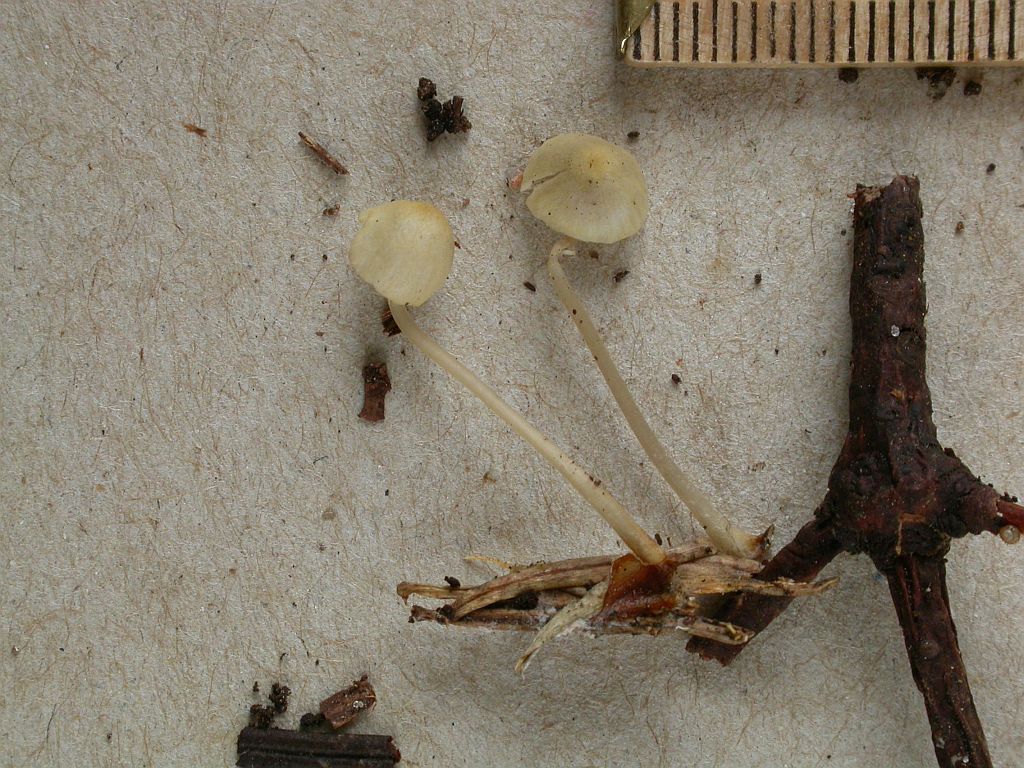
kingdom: Fungi
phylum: Basidiomycota
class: Agaricomycetes
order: Agaricales
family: Mycenaceae
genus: Mycena
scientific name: Mycena citrinomarginata
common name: gulægget huesvamp
